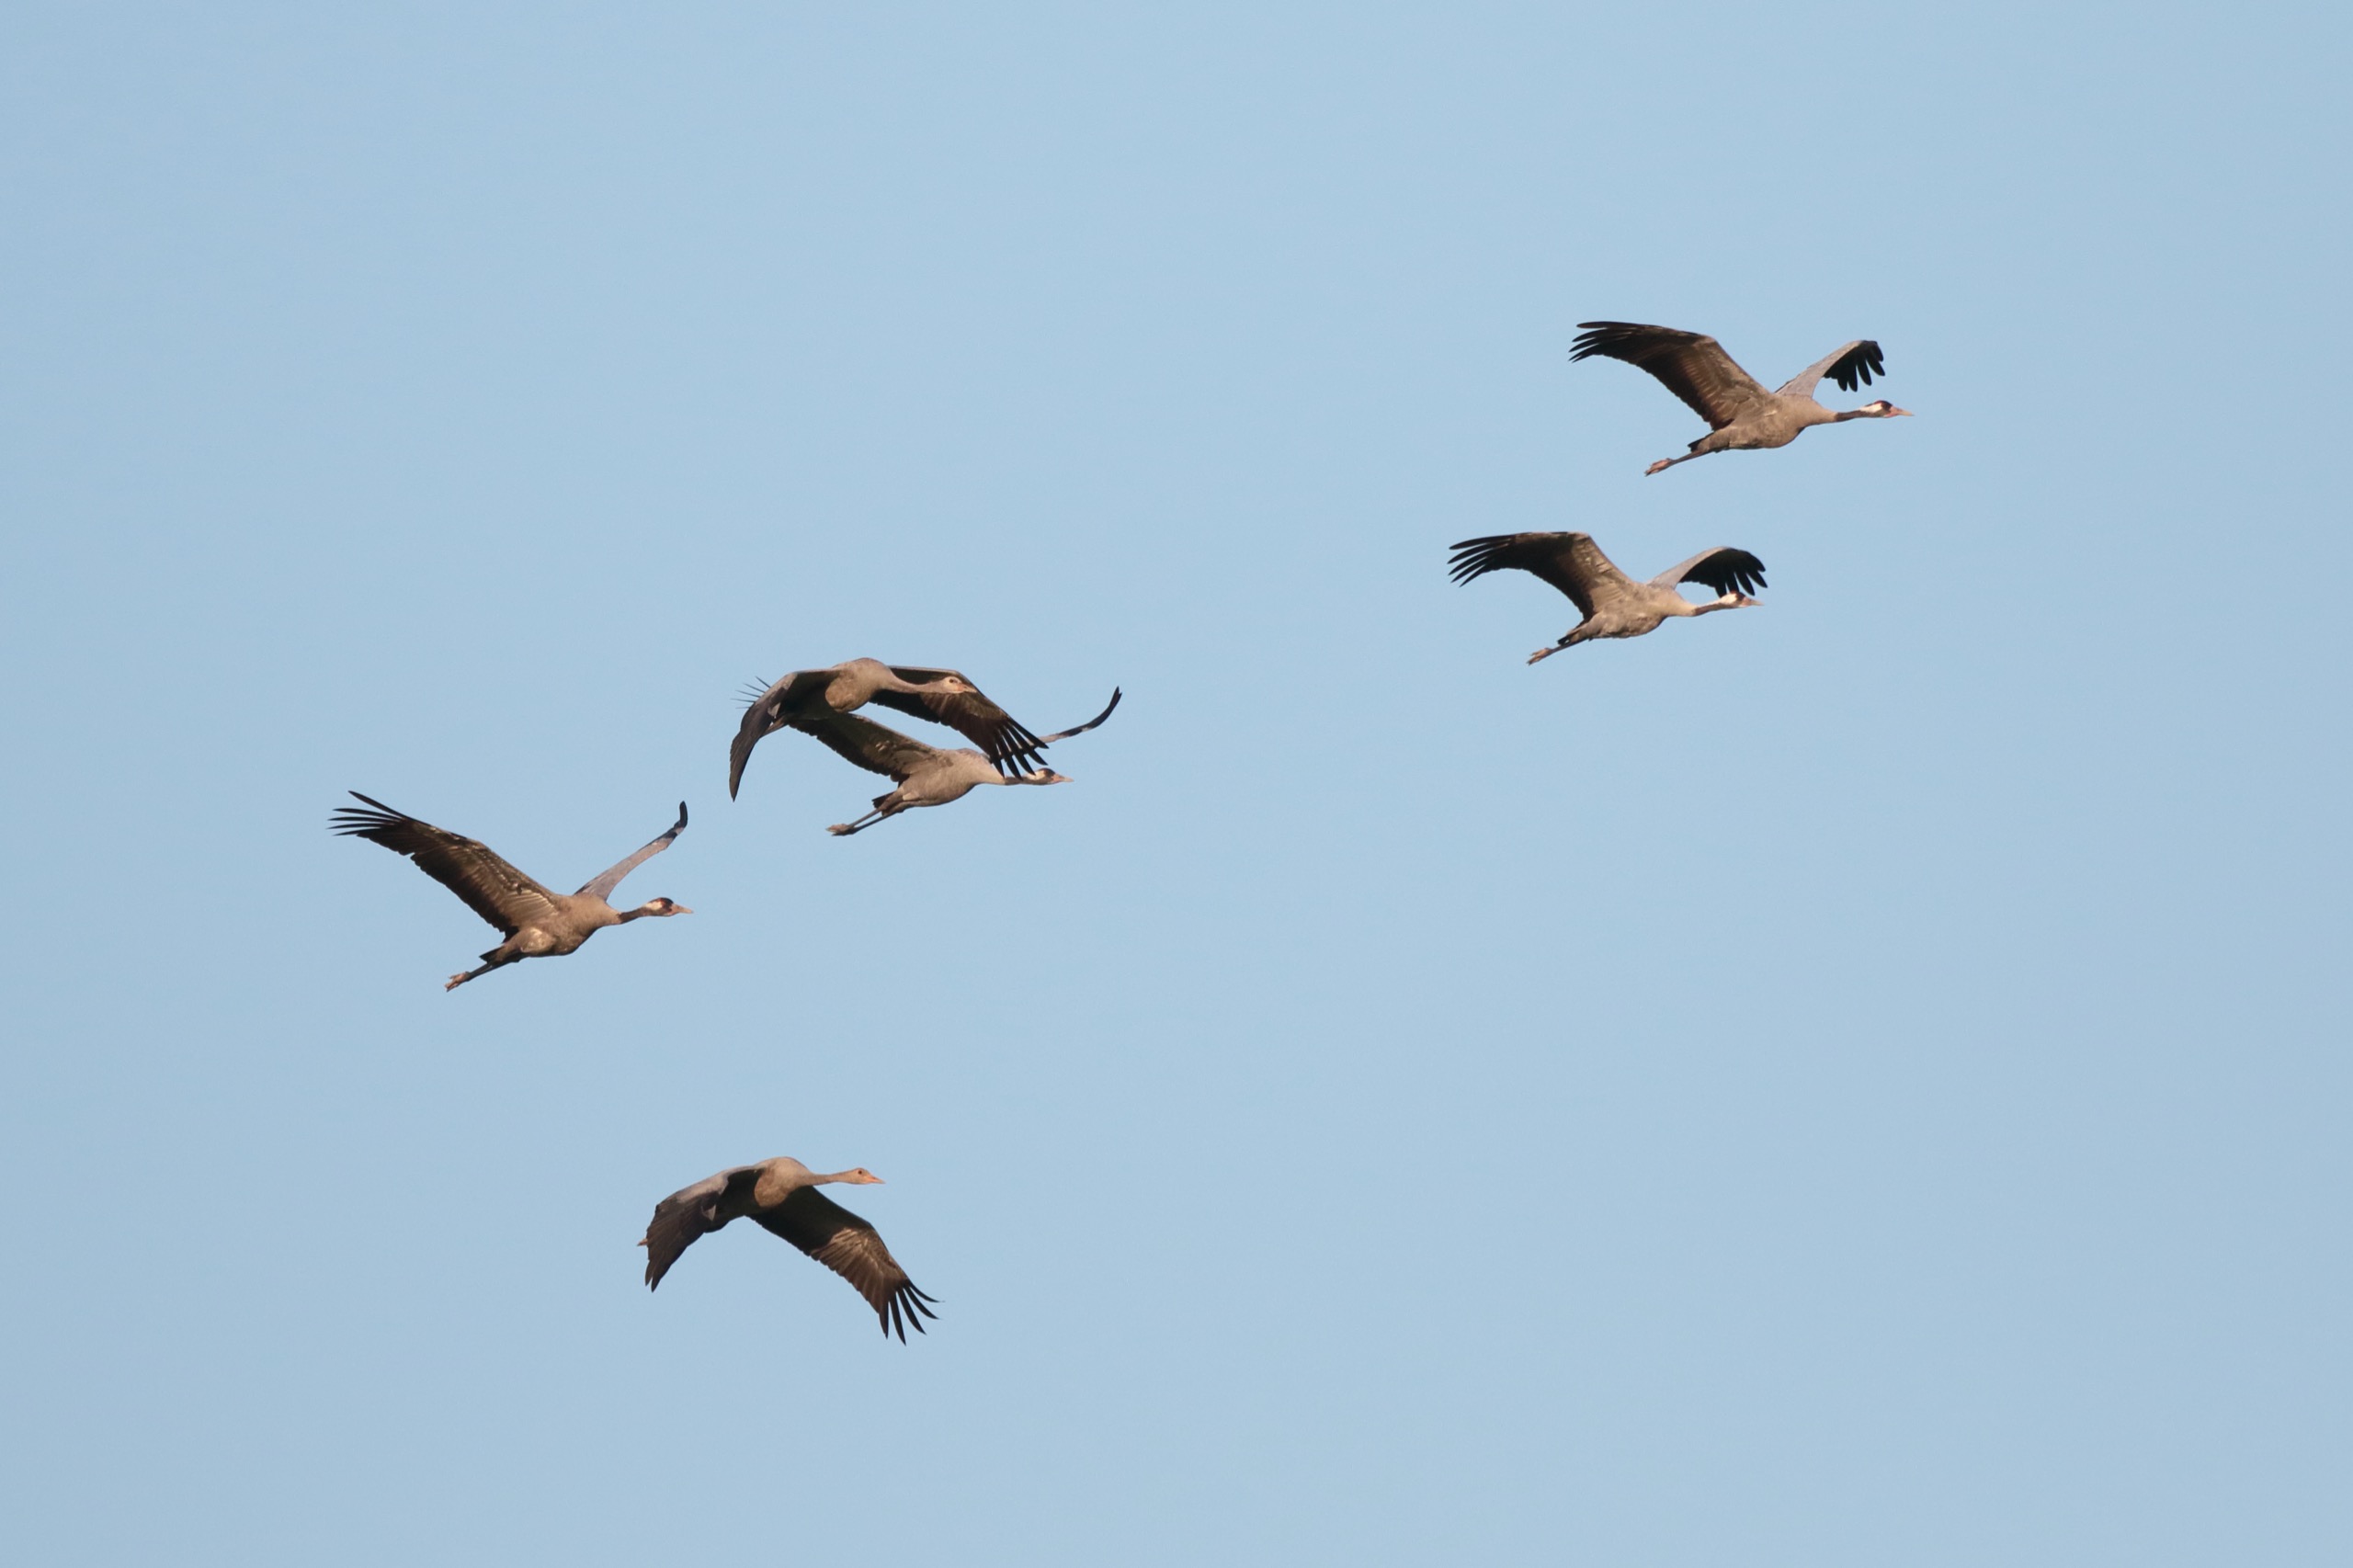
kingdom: Animalia
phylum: Chordata
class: Aves
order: Gruiformes
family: Gruidae
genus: Grus
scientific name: Grus grus
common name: Trane
